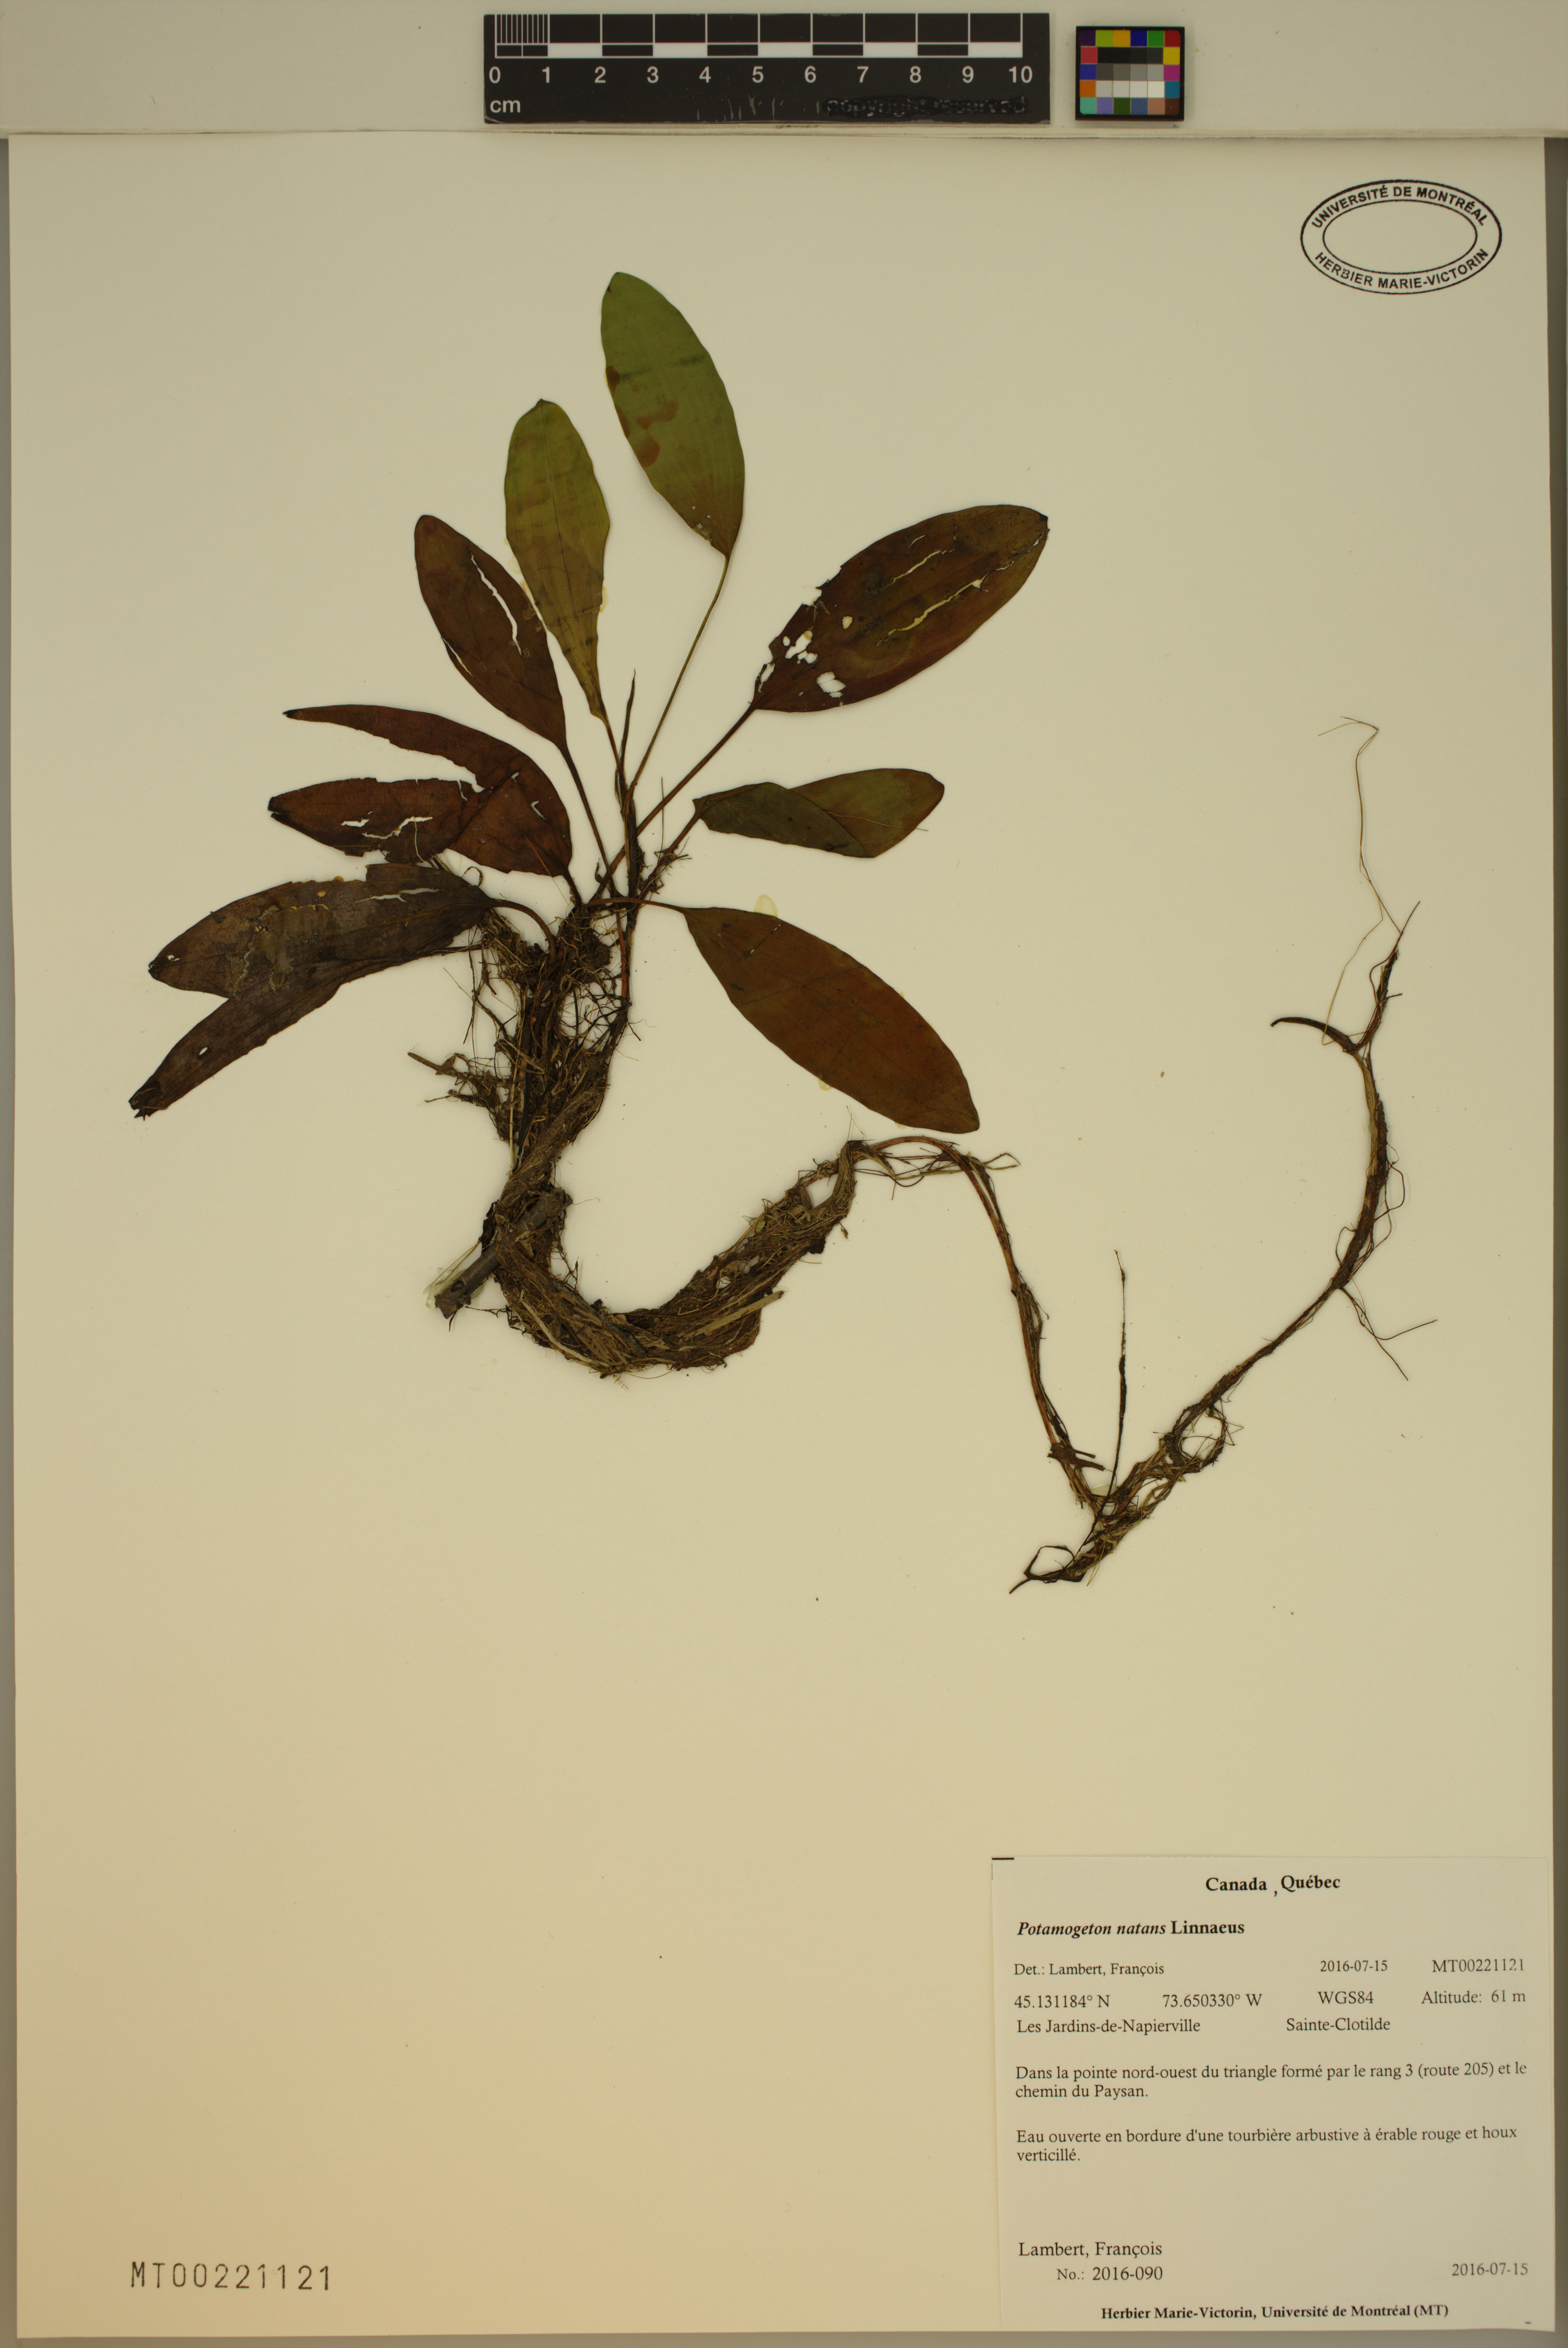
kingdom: Plantae
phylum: Tracheophyta
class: Liliopsida
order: Alismatales
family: Potamogetonaceae
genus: Potamogeton
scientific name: Potamogeton natans
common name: Broad-leaved pondweed
